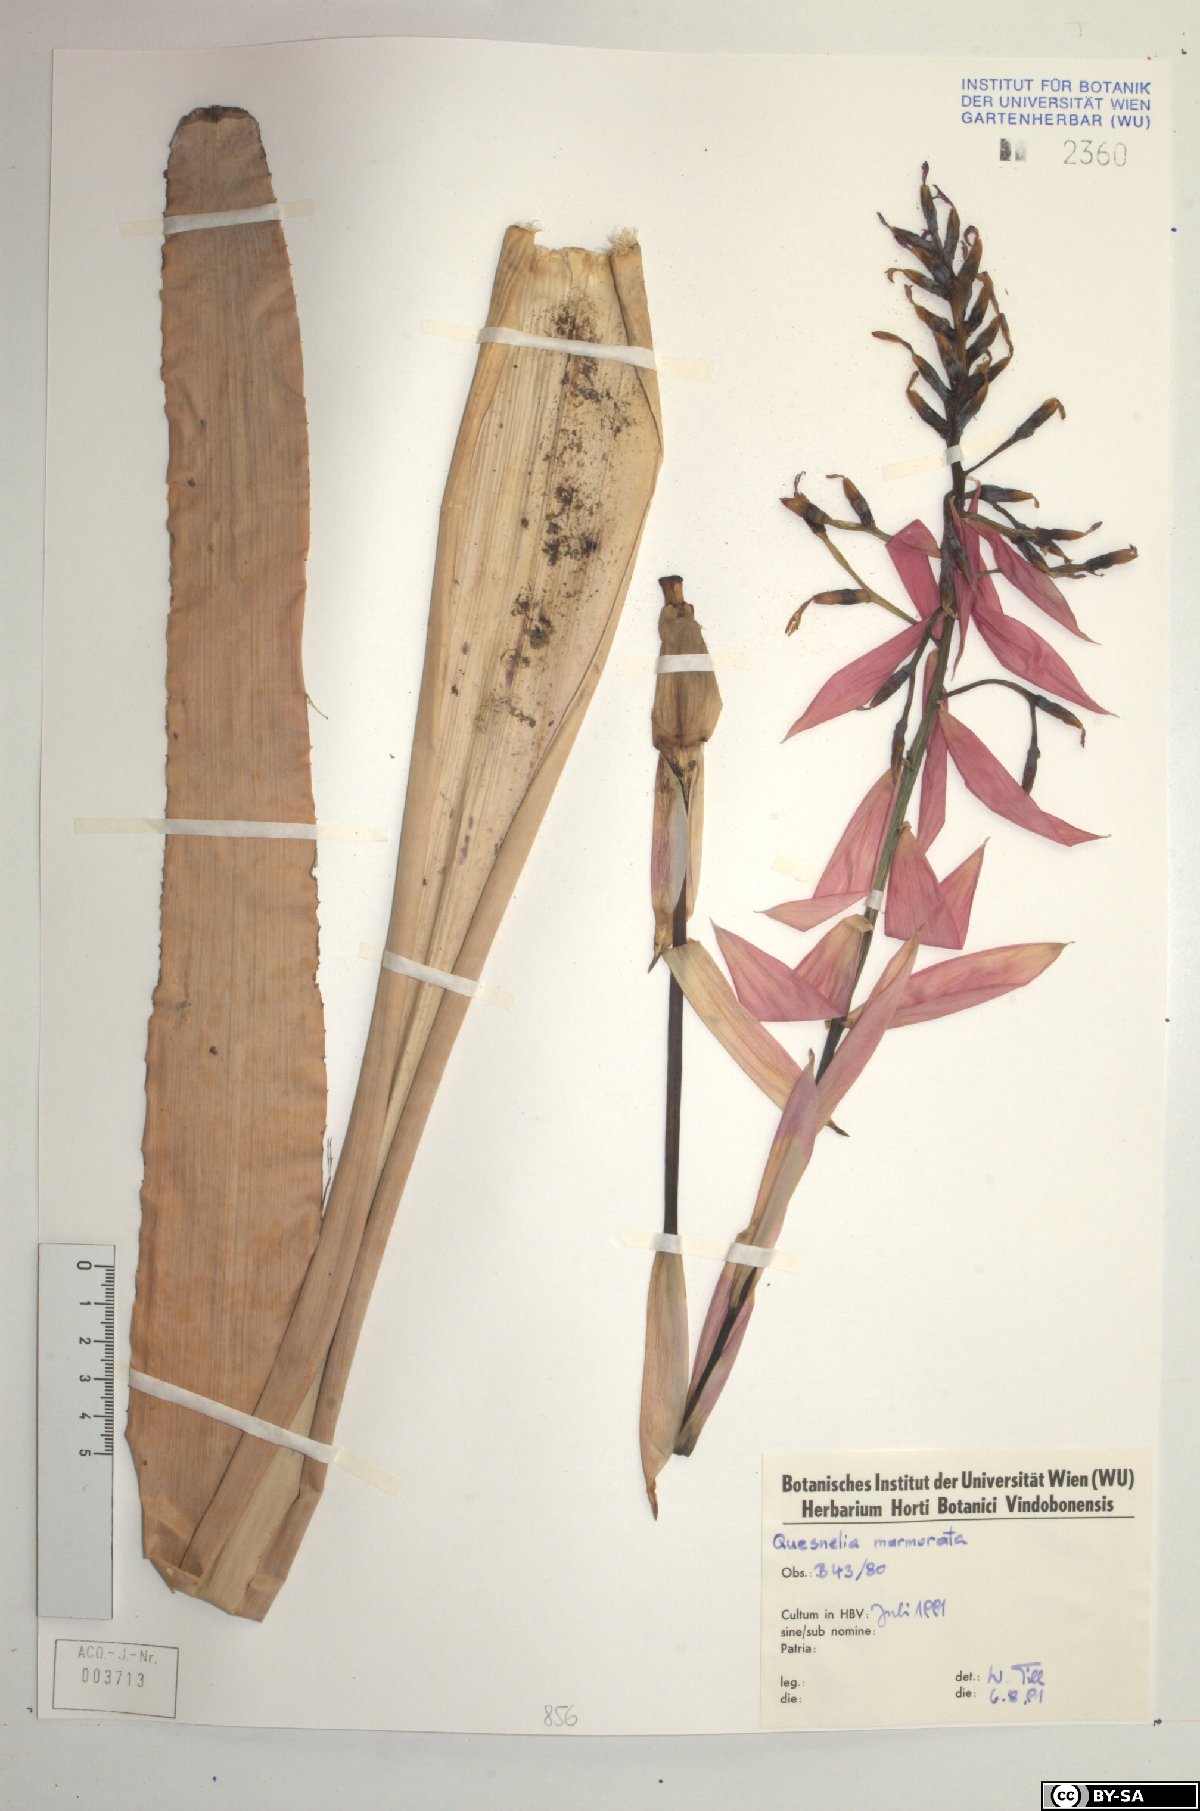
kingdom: Plantae
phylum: Tracheophyta
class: Liliopsida
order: Poales
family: Bromeliaceae
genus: Quesnelia
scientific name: Quesnelia marmorata
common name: Grecian urnplant
